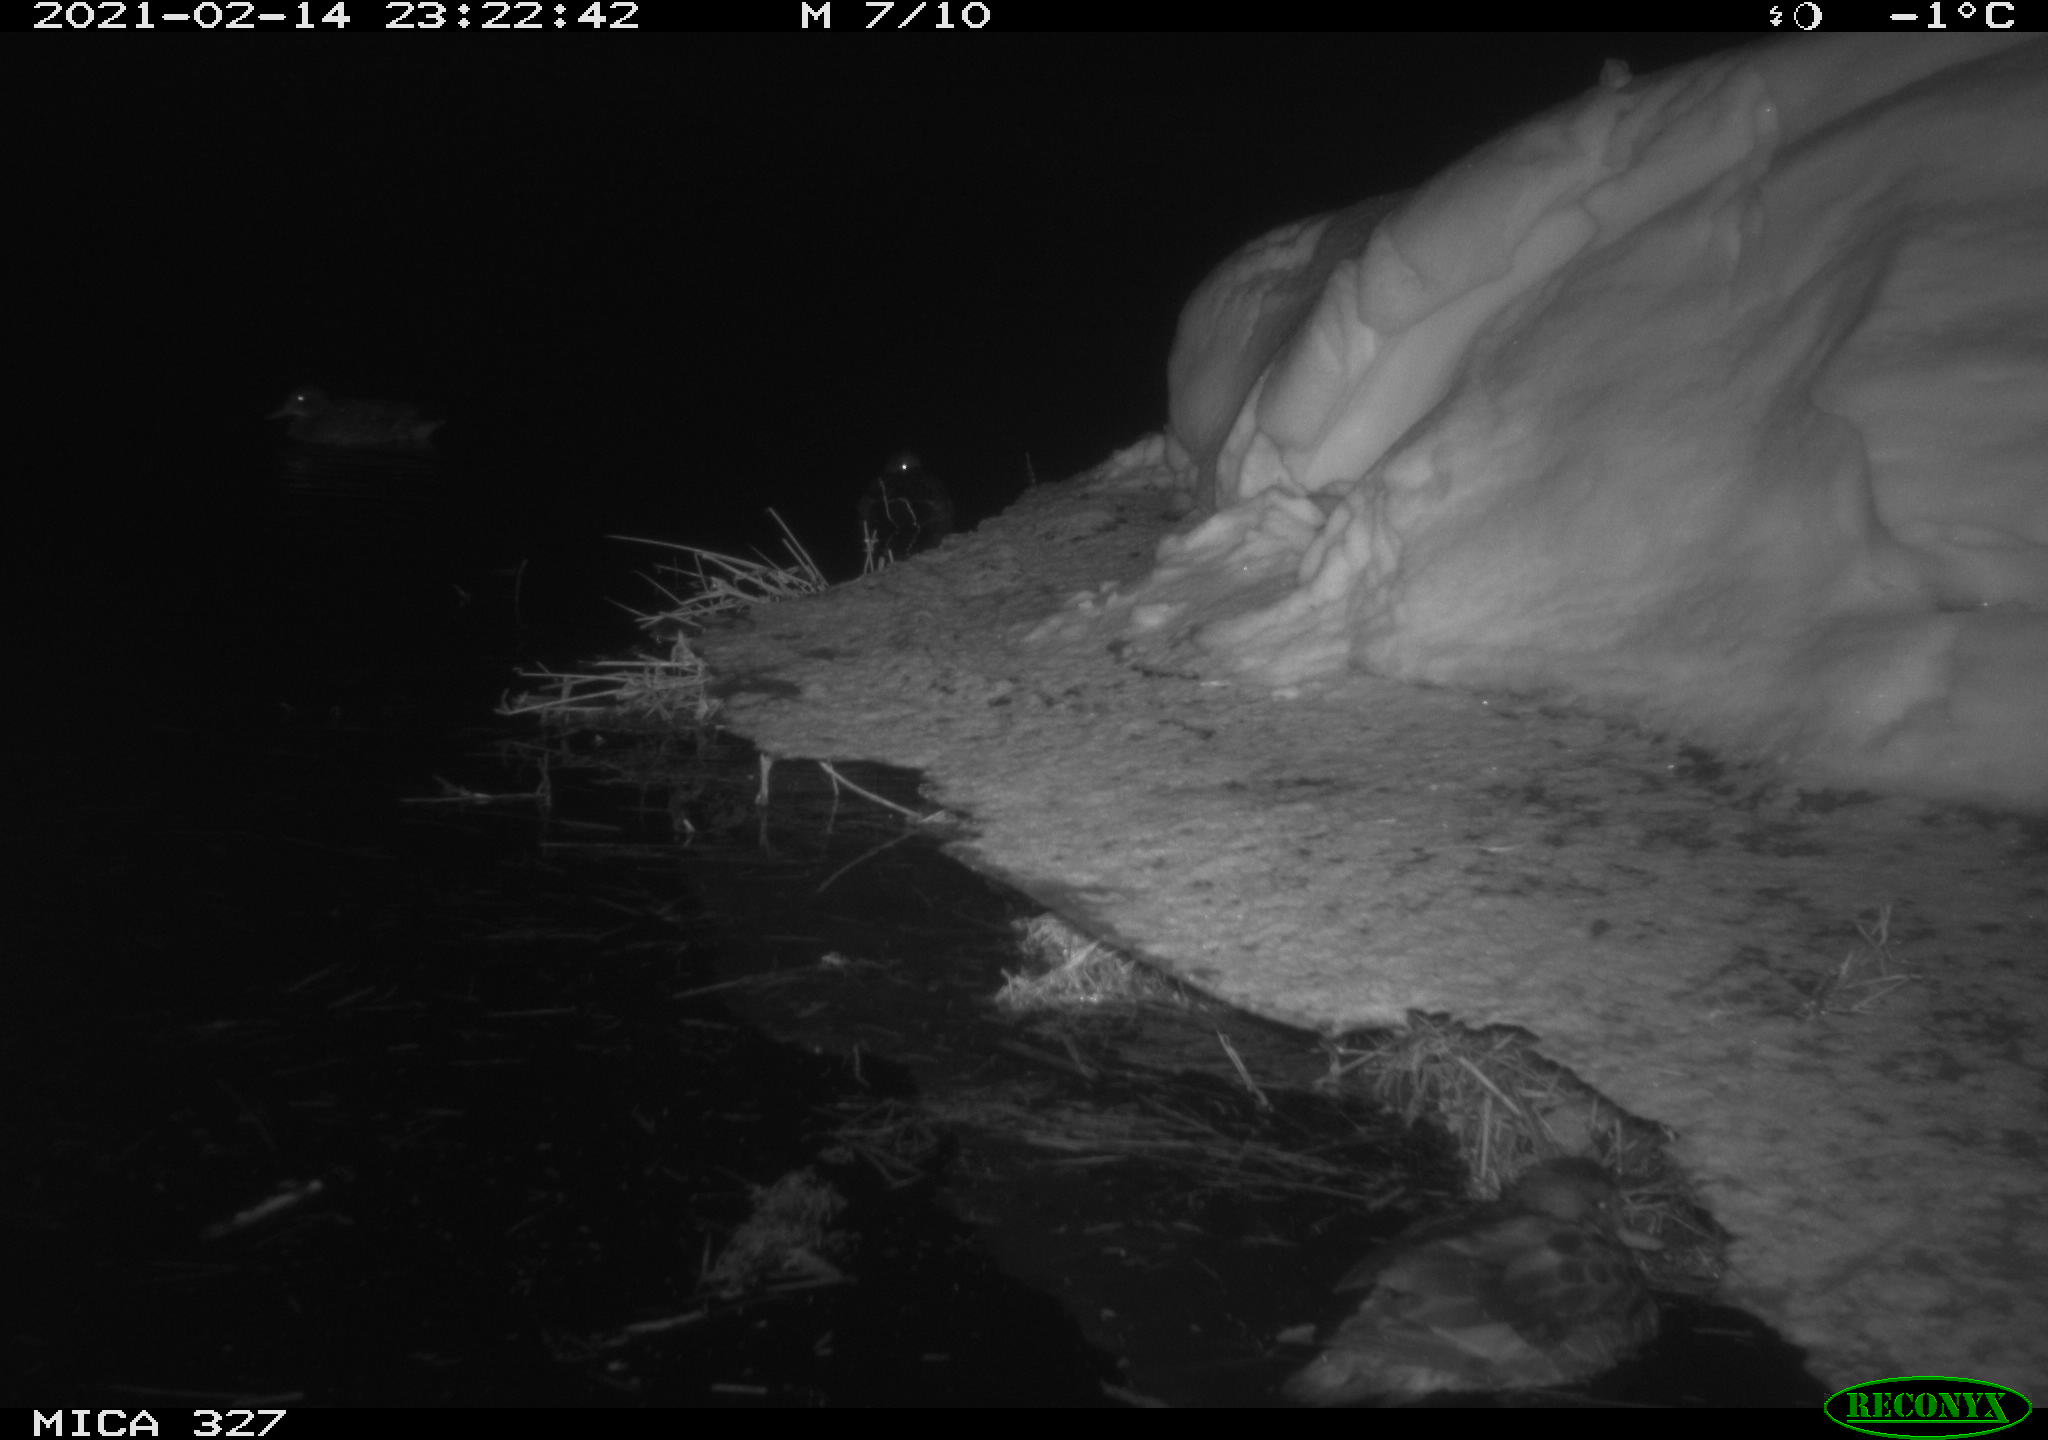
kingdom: Animalia
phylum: Chordata
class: Aves
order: Anseriformes
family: Anatidae
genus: Anas
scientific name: Anas
